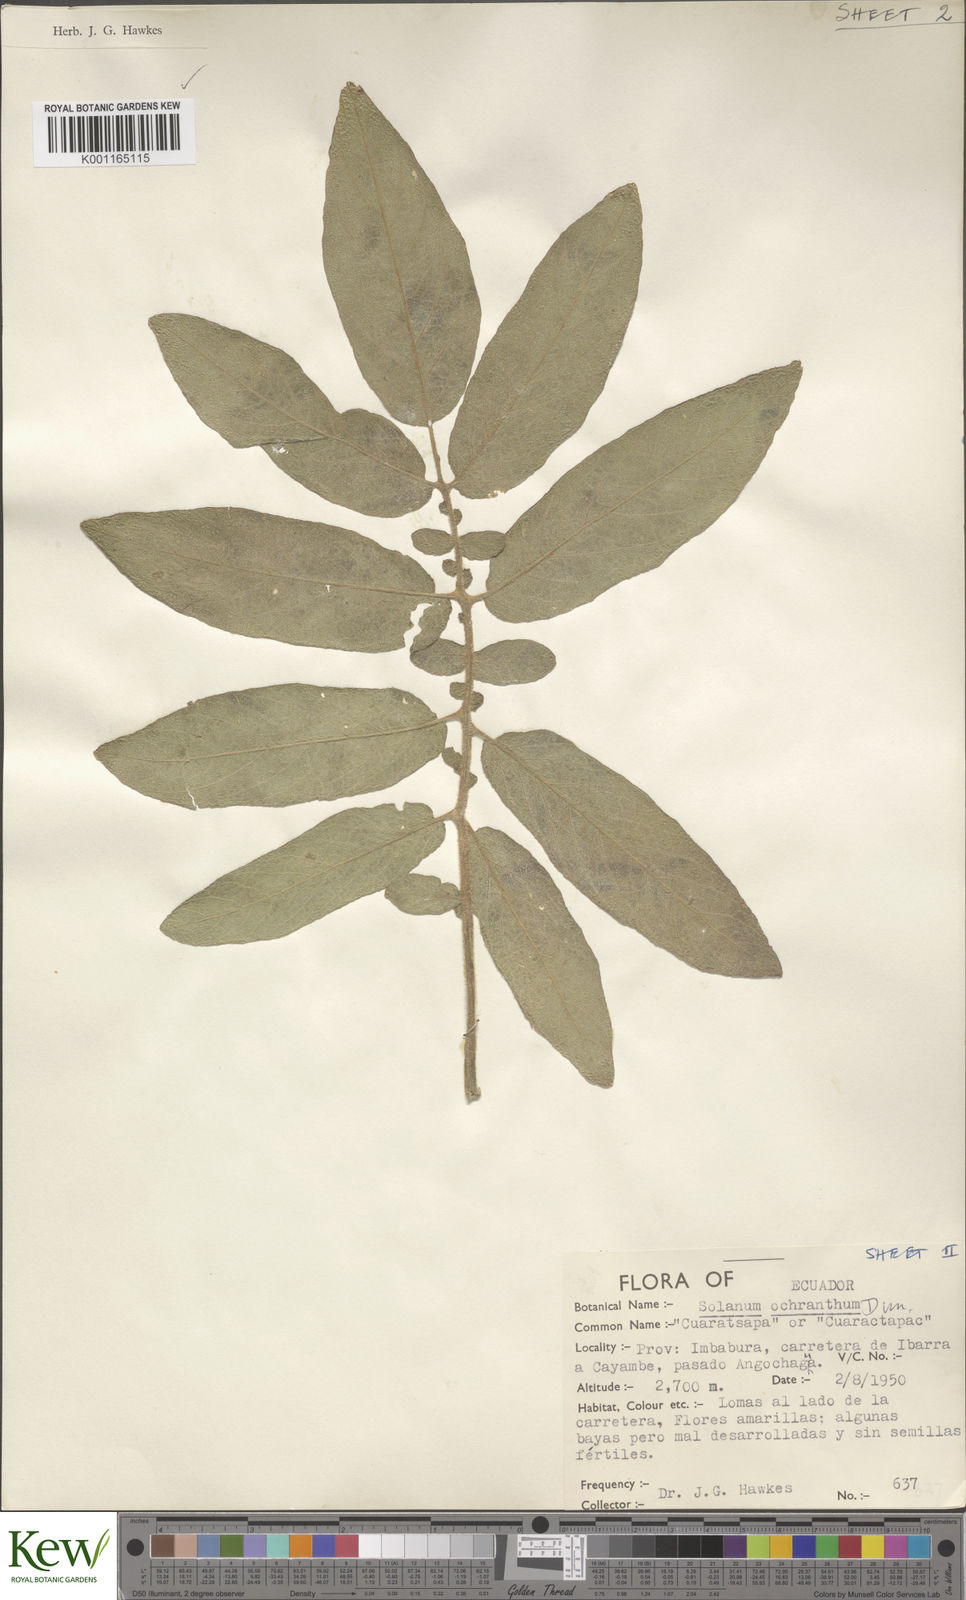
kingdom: Plantae
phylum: Tracheophyta
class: Magnoliopsida
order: Solanales
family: Solanaceae
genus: Solanum
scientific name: Solanum ochranthum
